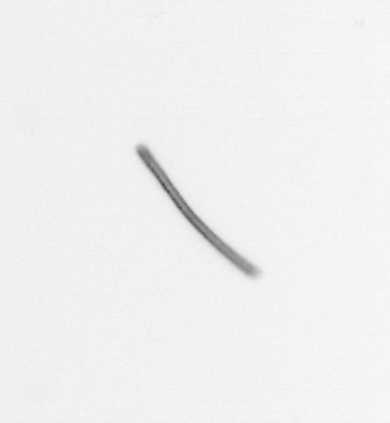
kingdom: Chromista
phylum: Ochrophyta
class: Bacillariophyceae
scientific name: Bacillariophyceae
